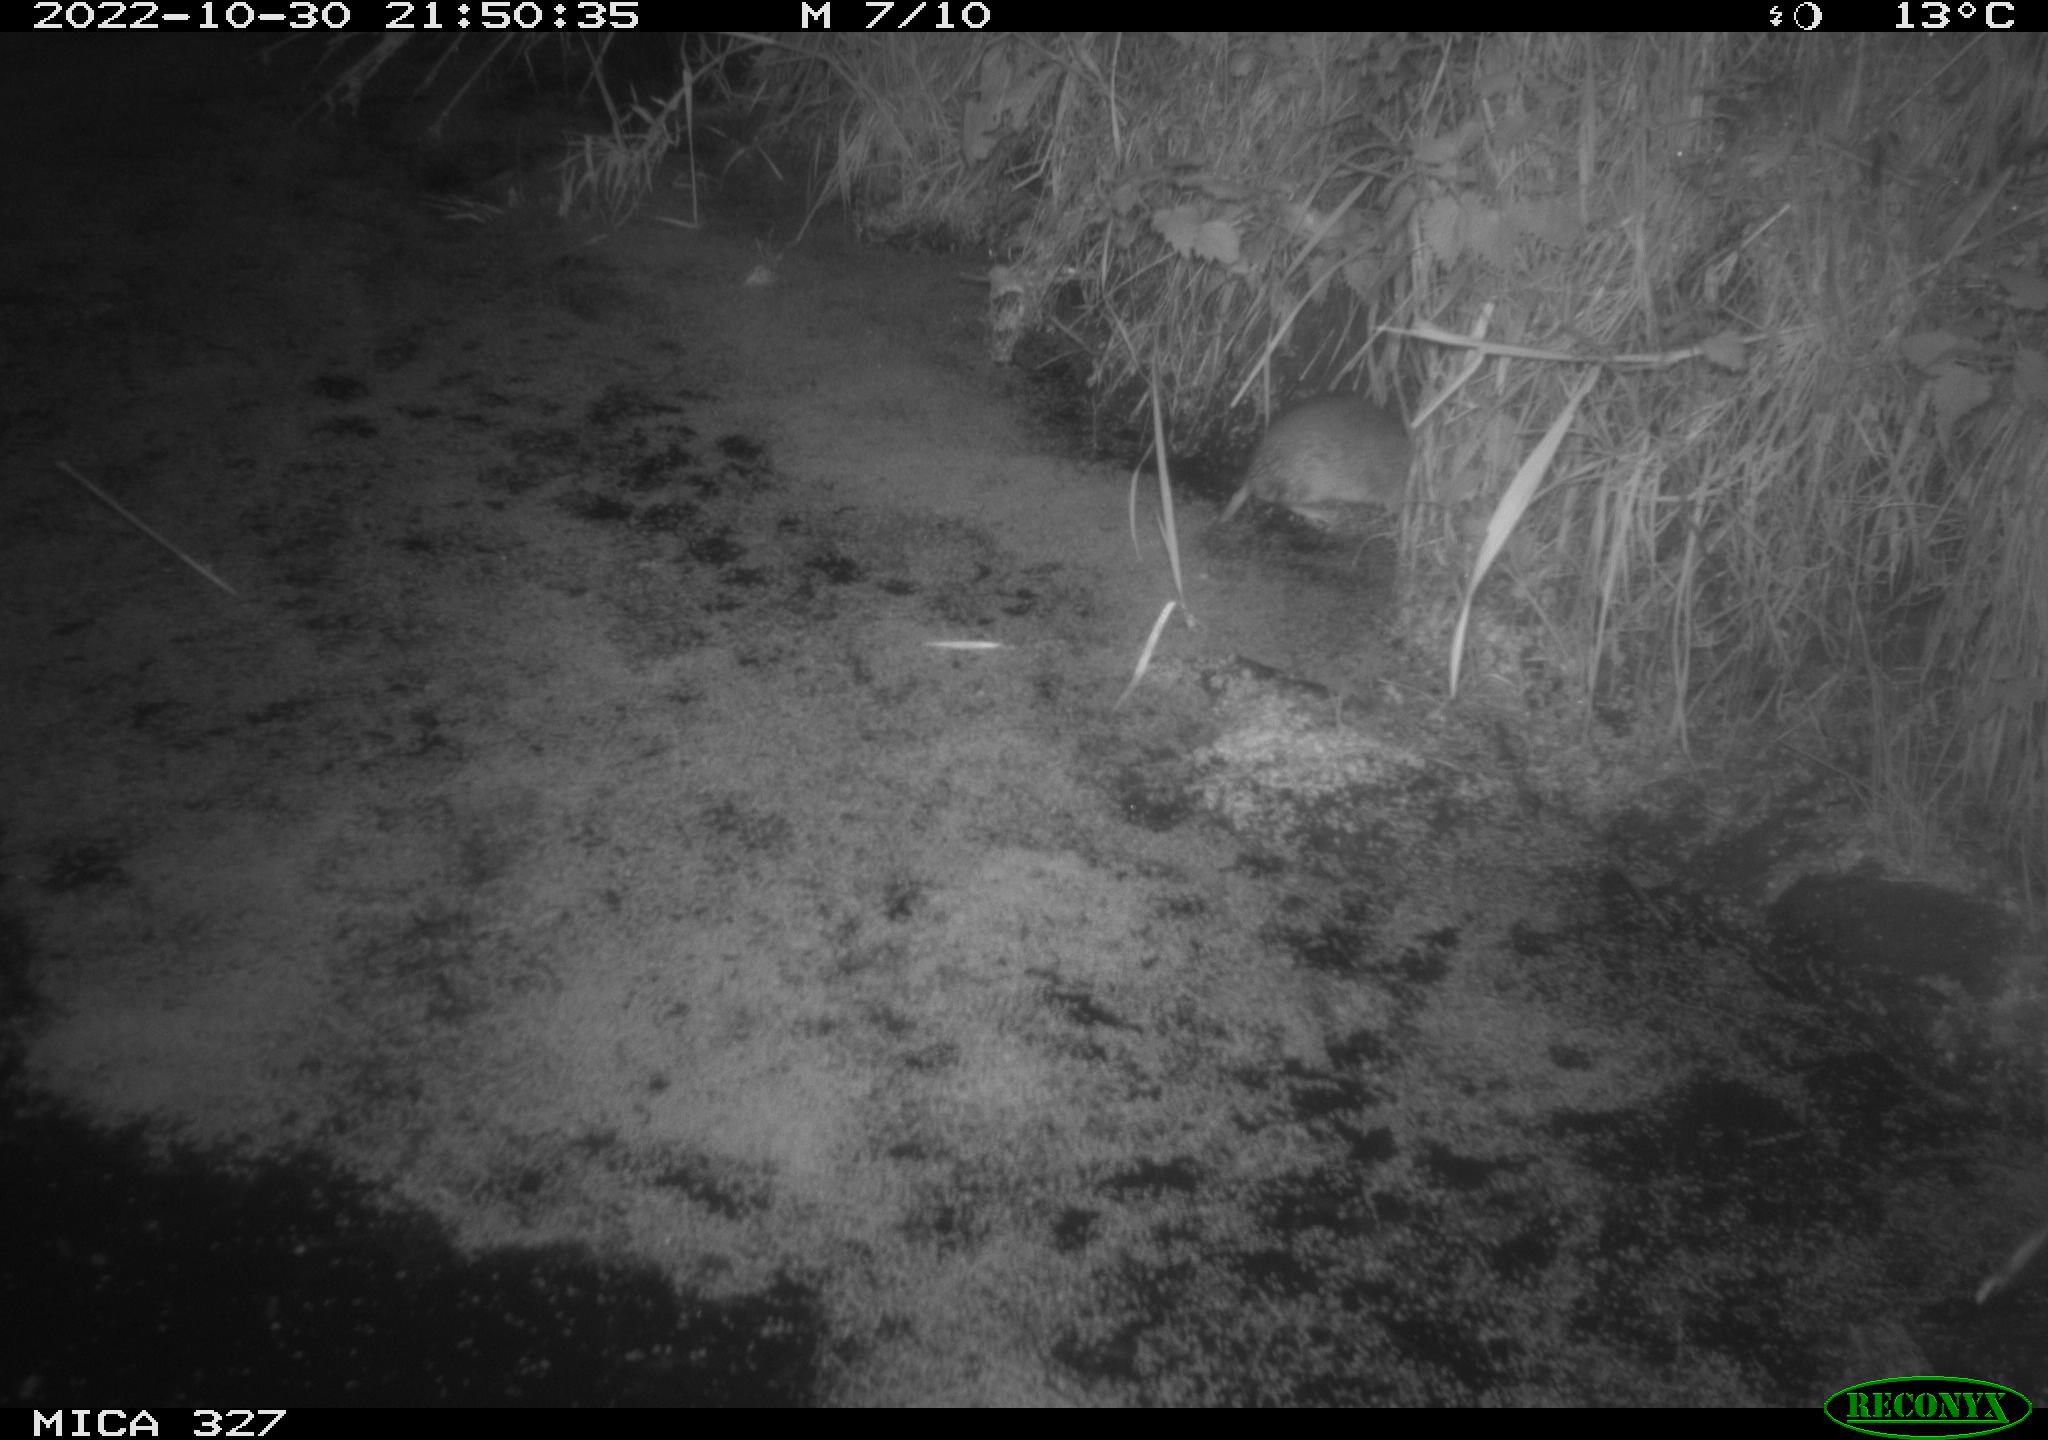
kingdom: Animalia
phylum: Chordata
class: Mammalia
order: Rodentia
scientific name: Rodentia
